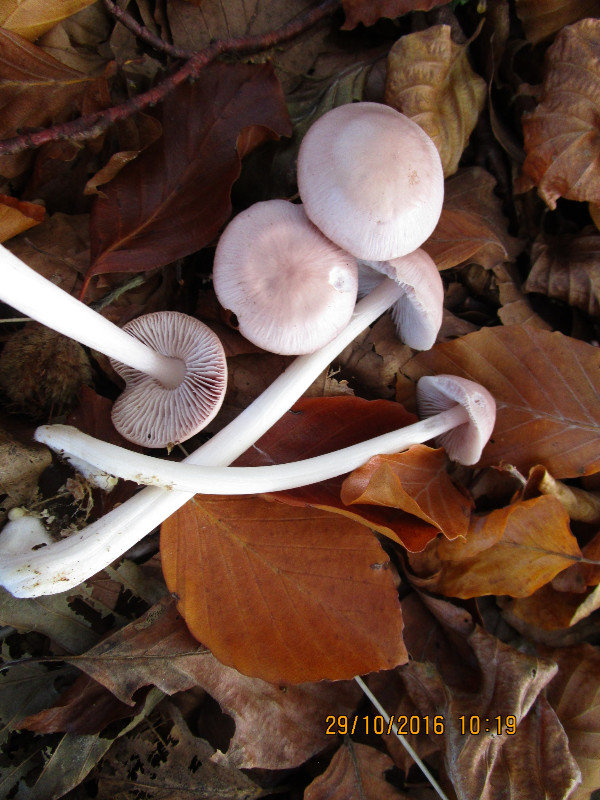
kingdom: Fungi
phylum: Basidiomycota
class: Agaricomycetes
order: Agaricales
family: Mycenaceae
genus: Mycena
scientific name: Mycena rosea
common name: rosa huesvamp
